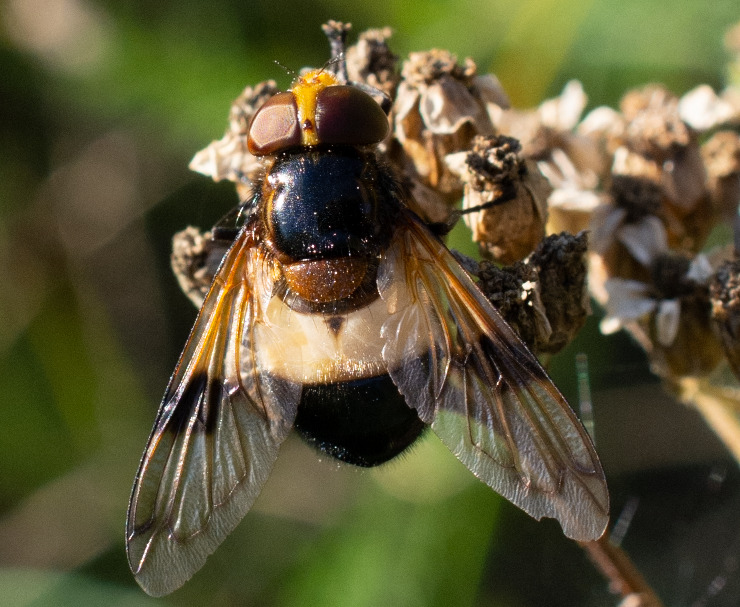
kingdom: Animalia
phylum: Arthropoda
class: Insecta
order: Diptera
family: Syrphidae
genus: Volucella
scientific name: Volucella pellucens
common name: Hvidbåndet humlesvirreflue
